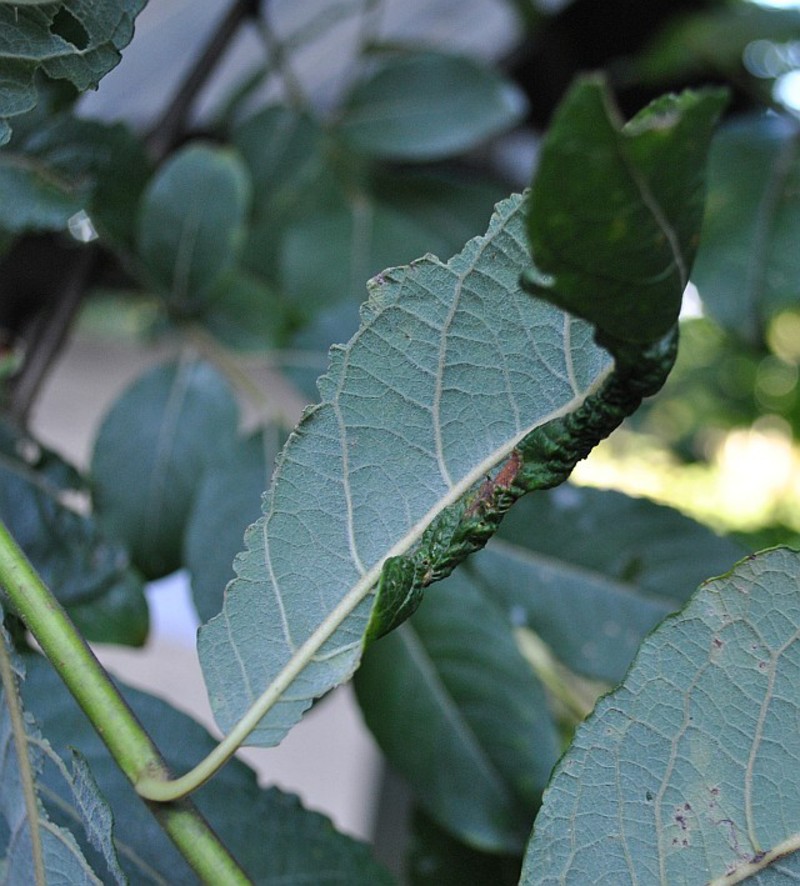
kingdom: Animalia
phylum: Arthropoda
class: Insecta
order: Hymenoptera
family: Tenthredinidae
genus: Phyllocolpa
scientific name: Phyllocolpa
